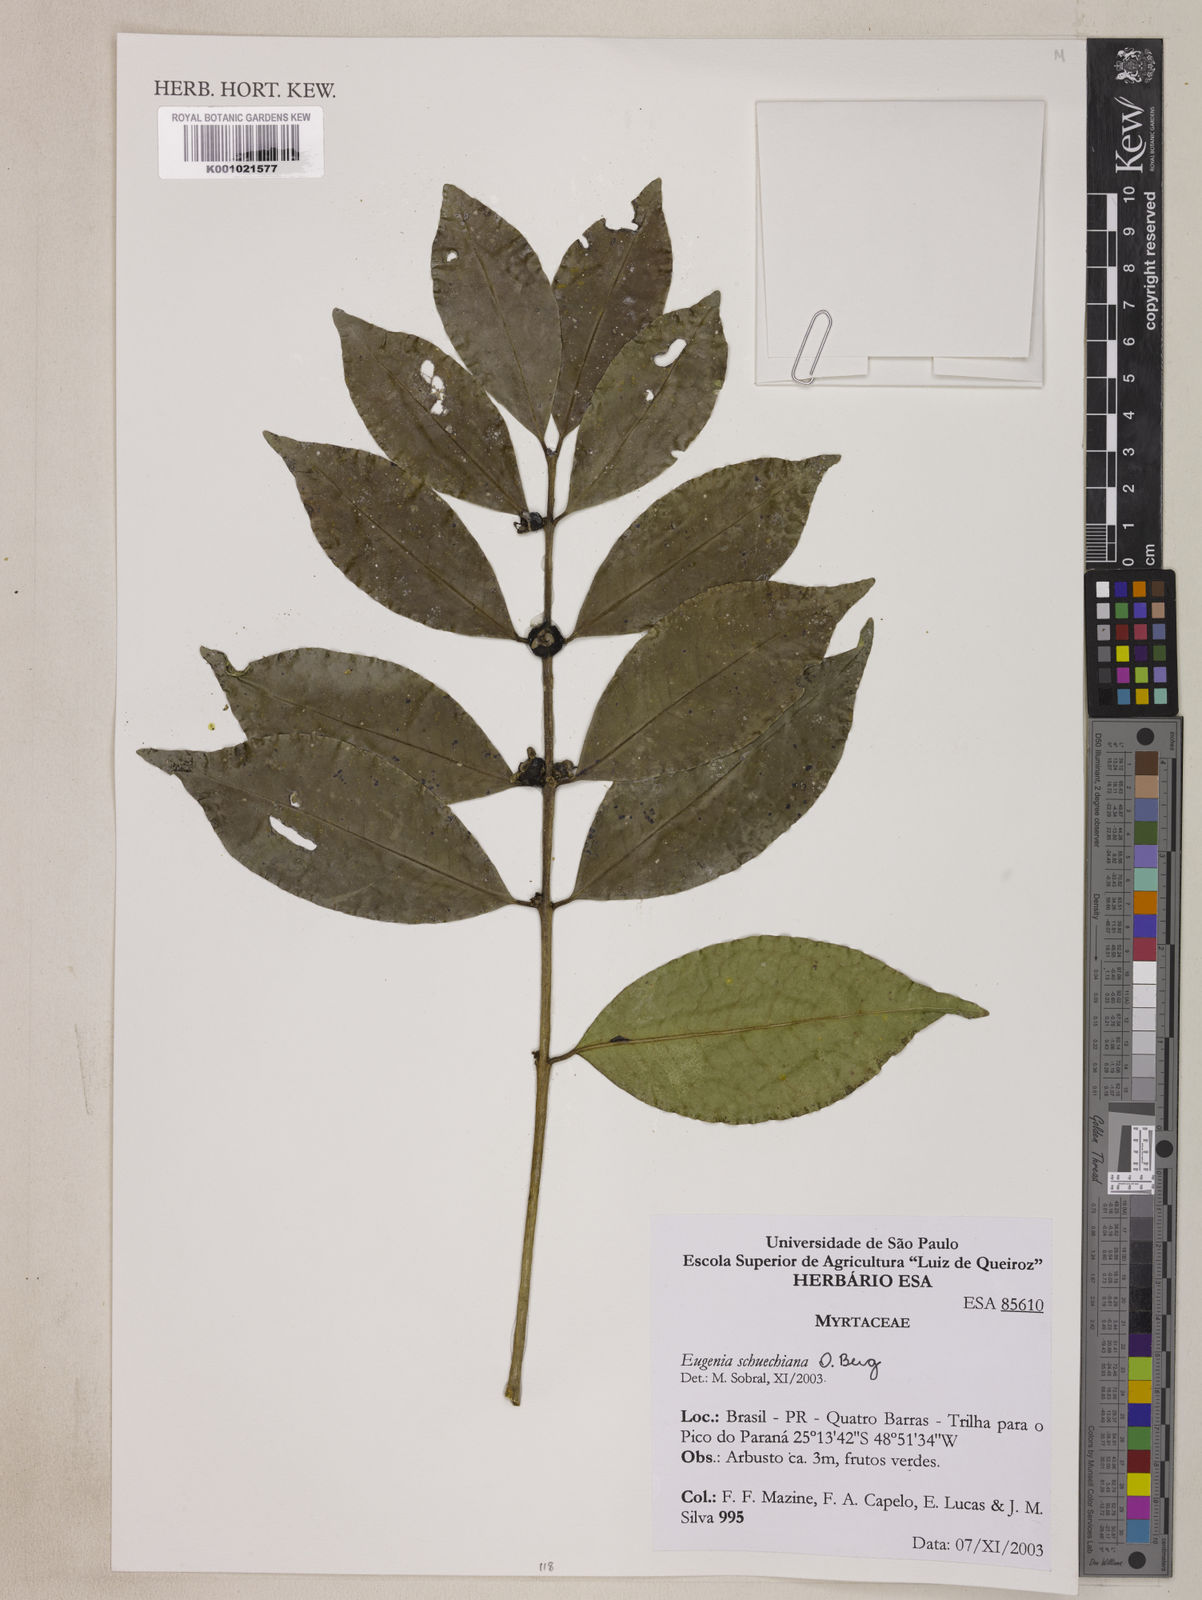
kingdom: Plantae
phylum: Tracheophyta
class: Magnoliopsida
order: Myrtales
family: Myrtaceae
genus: Eugenia
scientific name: Eugenia verticillata
